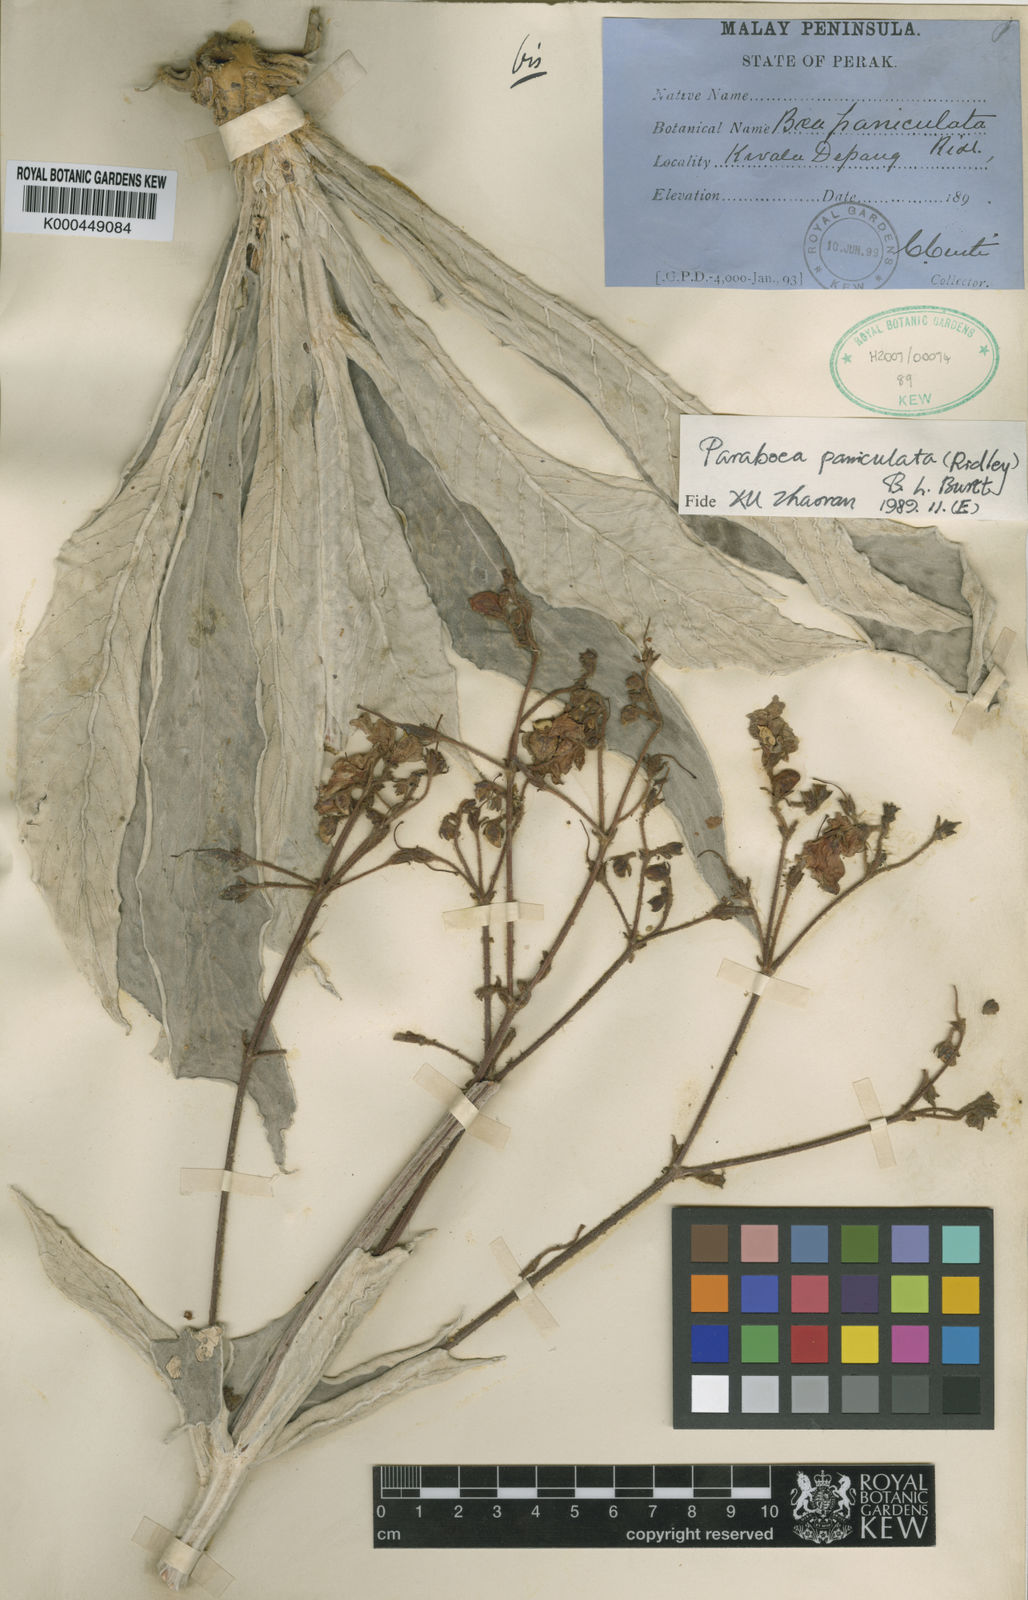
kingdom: Plantae
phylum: Tracheophyta
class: Magnoliopsida
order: Lamiales
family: Gesneriaceae
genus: Paraboea
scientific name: Paraboea paniculata
